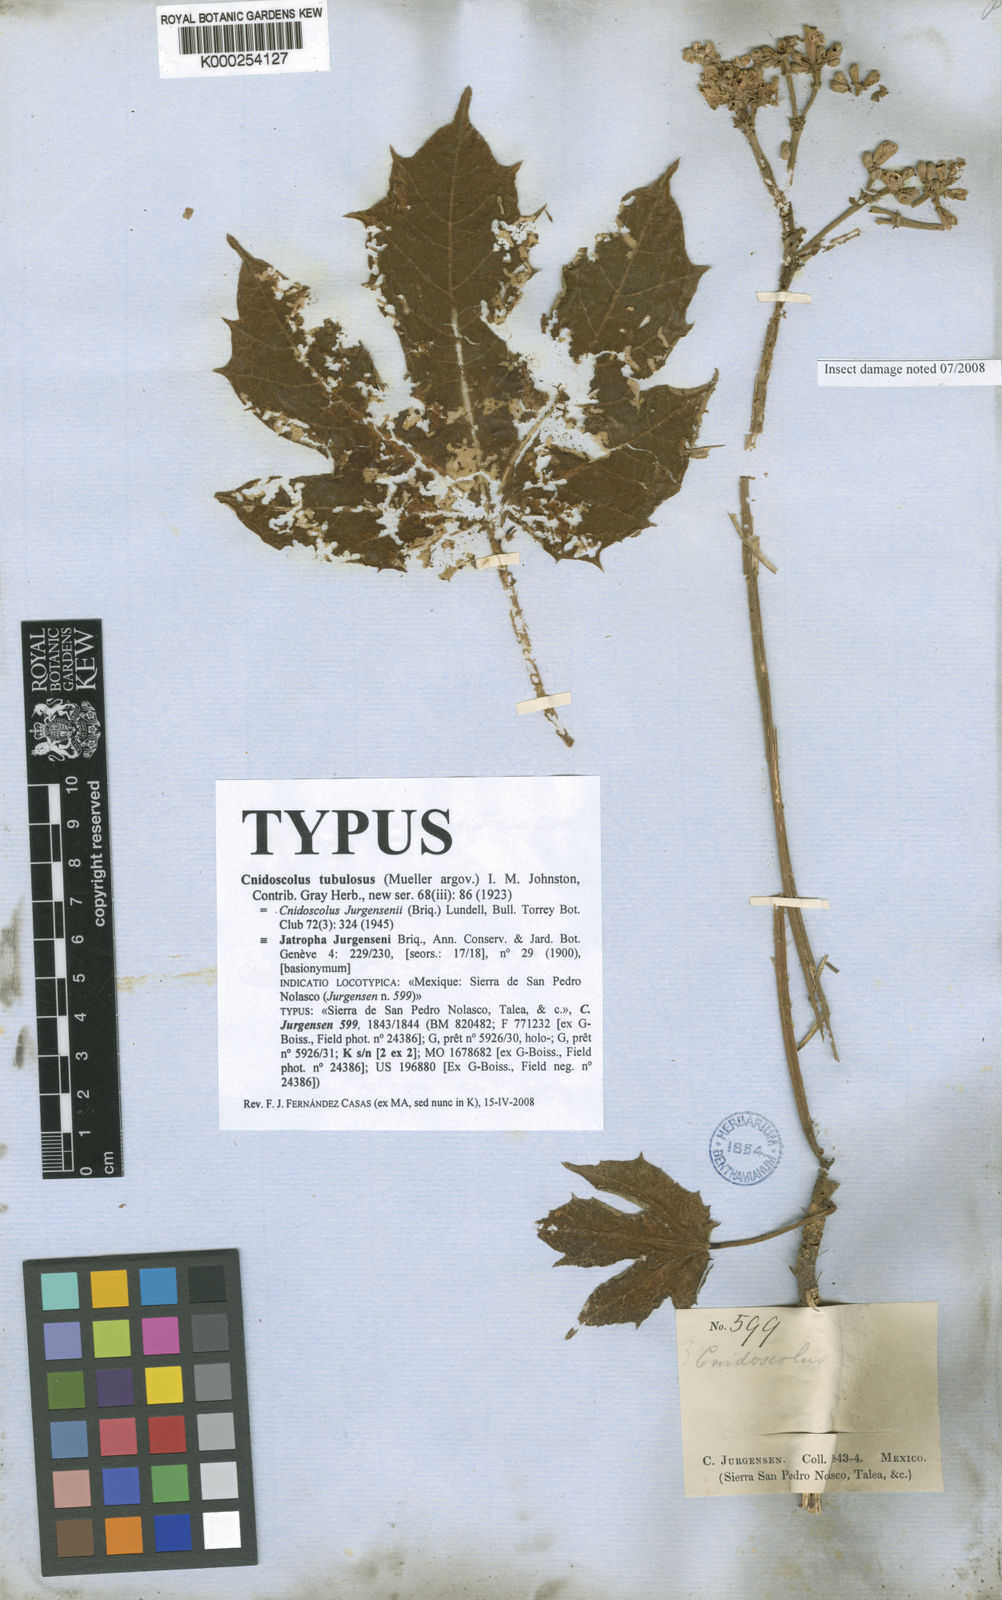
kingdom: Plantae
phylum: Tracheophyta
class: Magnoliopsida
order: Malpighiales
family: Euphorbiaceae
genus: Cnidoscolus
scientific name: Cnidoscolus tubulosus
